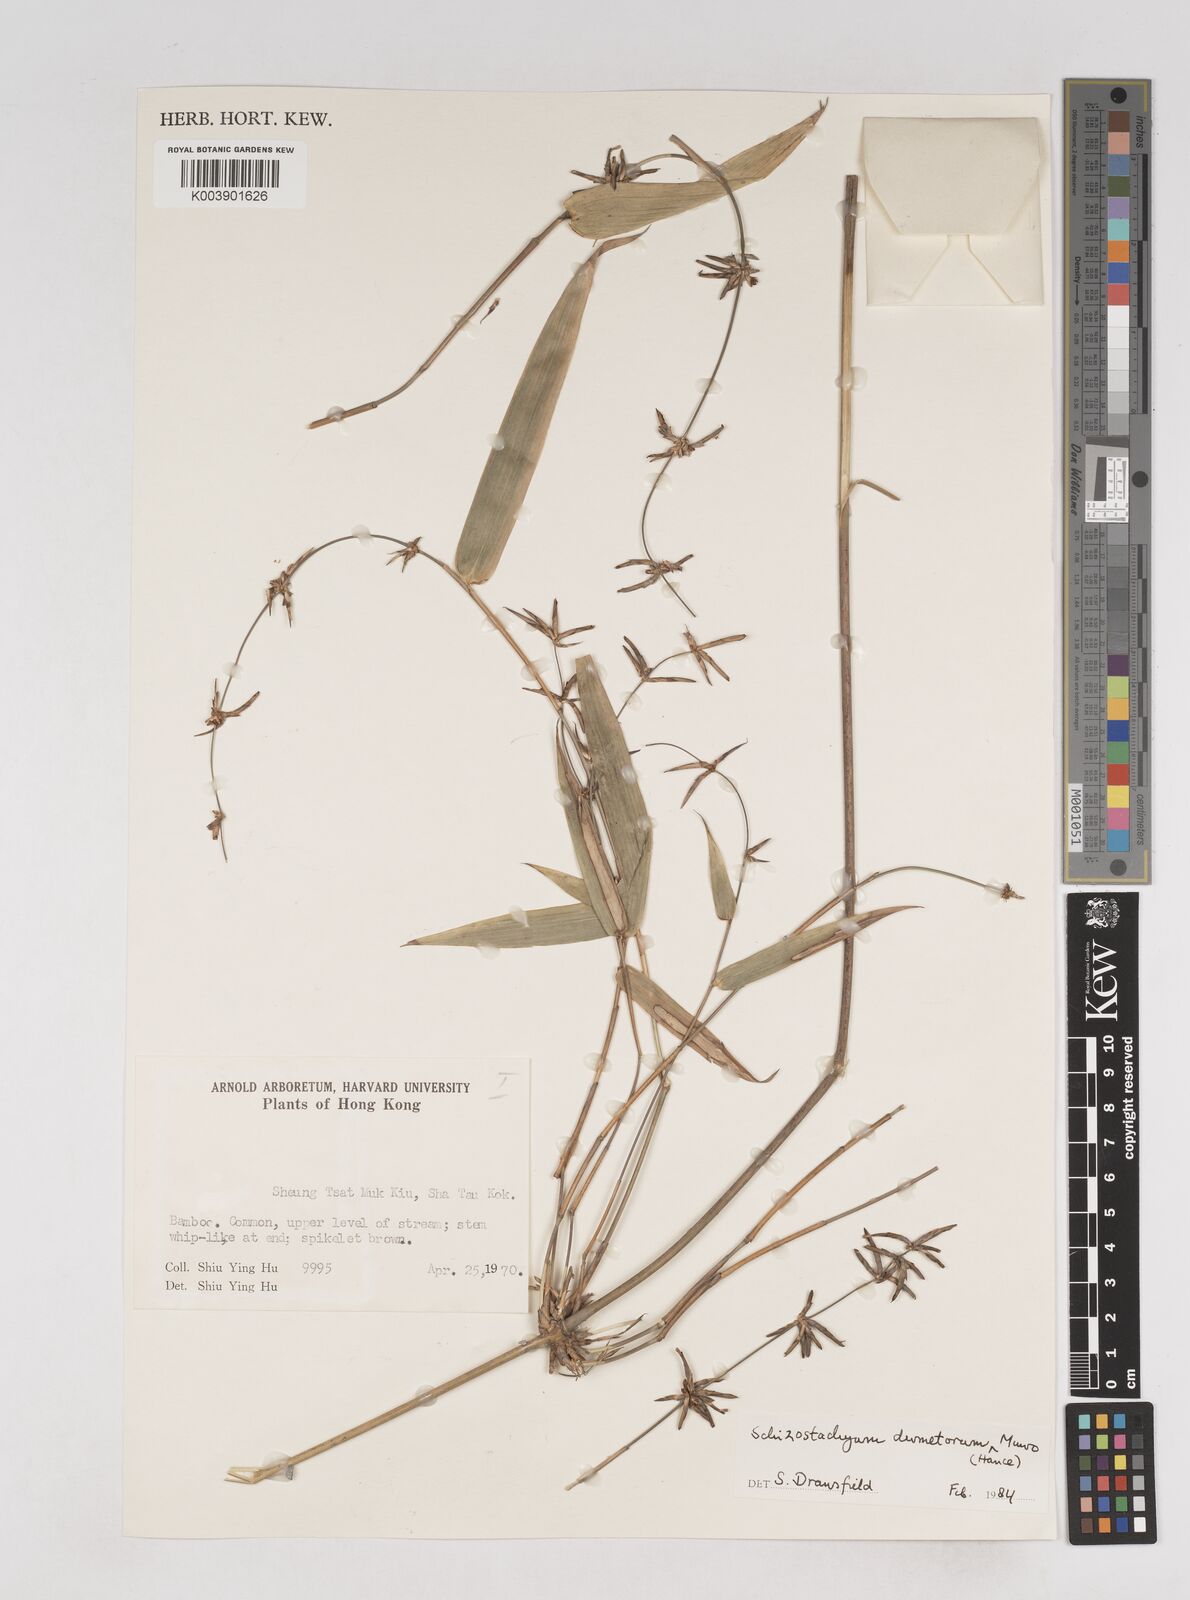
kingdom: Plantae
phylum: Tracheophyta
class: Liliopsida
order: Poales
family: Poaceae
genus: Schizostachyum
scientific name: Schizostachyum dumetorum
